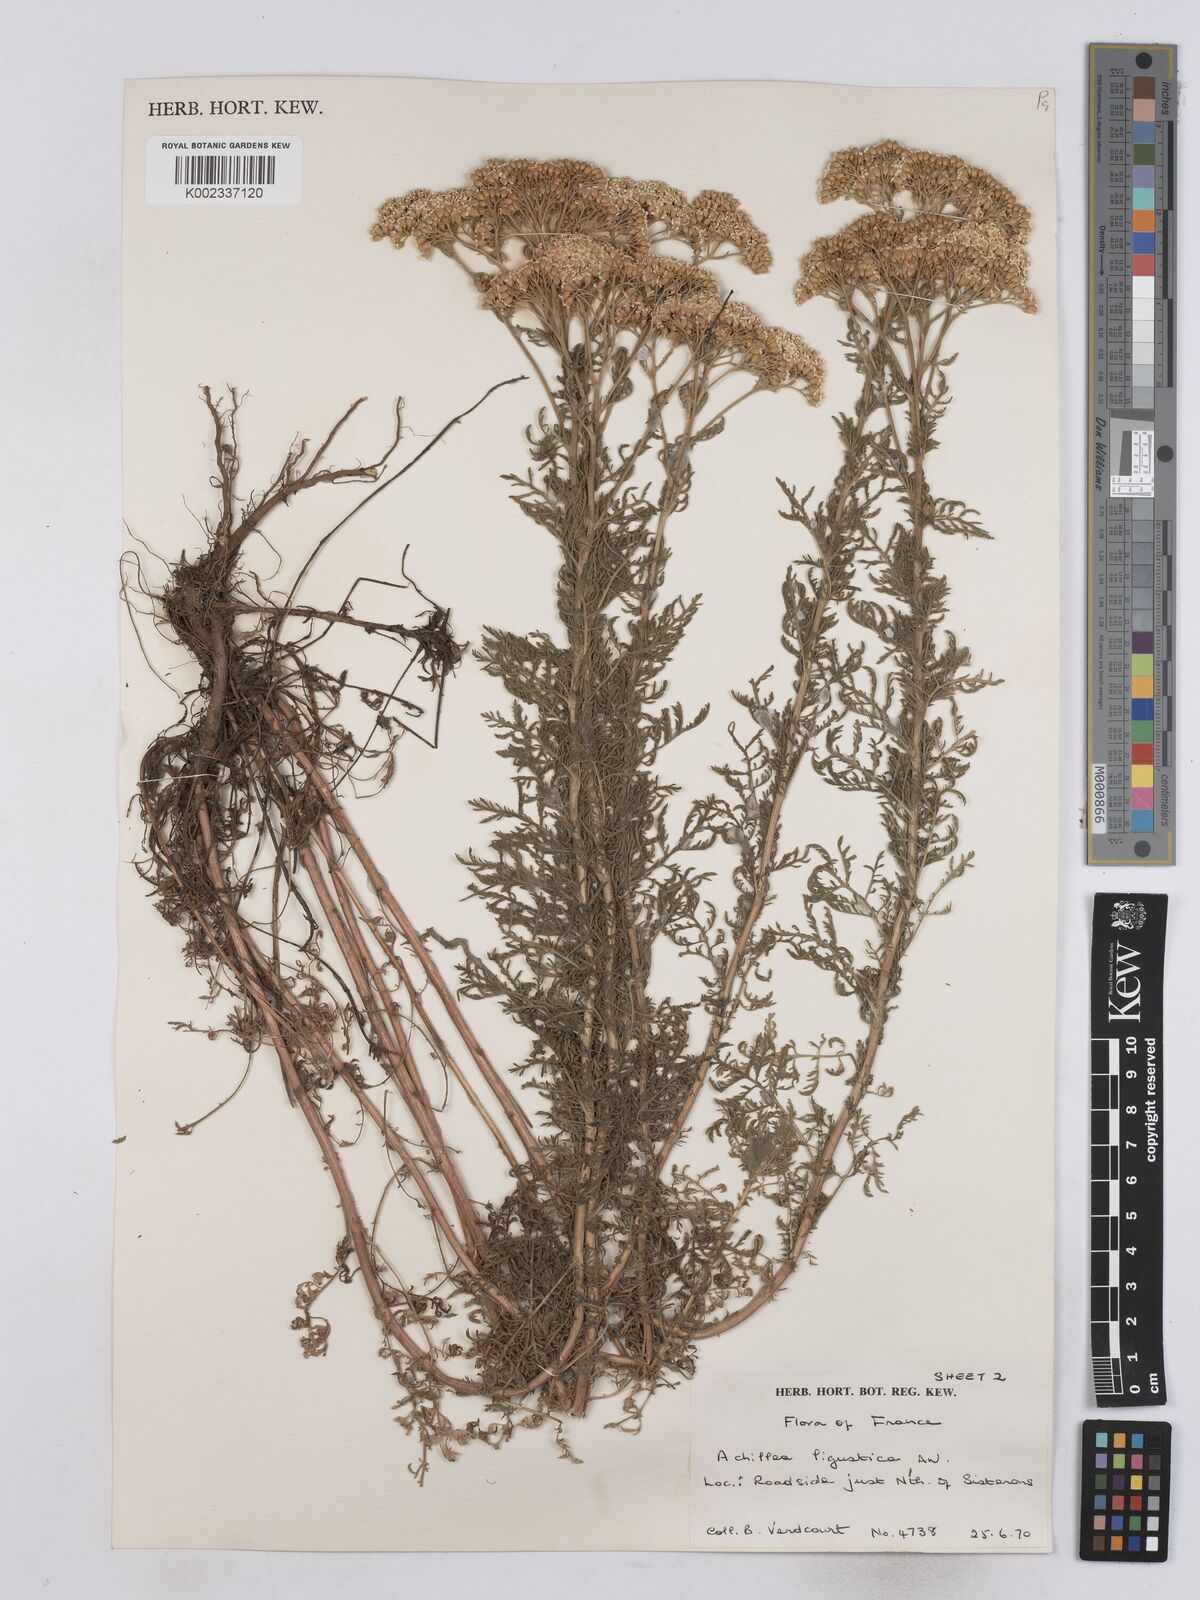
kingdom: Plantae
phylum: Tracheophyta
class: Magnoliopsida
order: Asterales
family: Asteraceae
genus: Achillea
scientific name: Achillea ligustica
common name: Southern yarrow
